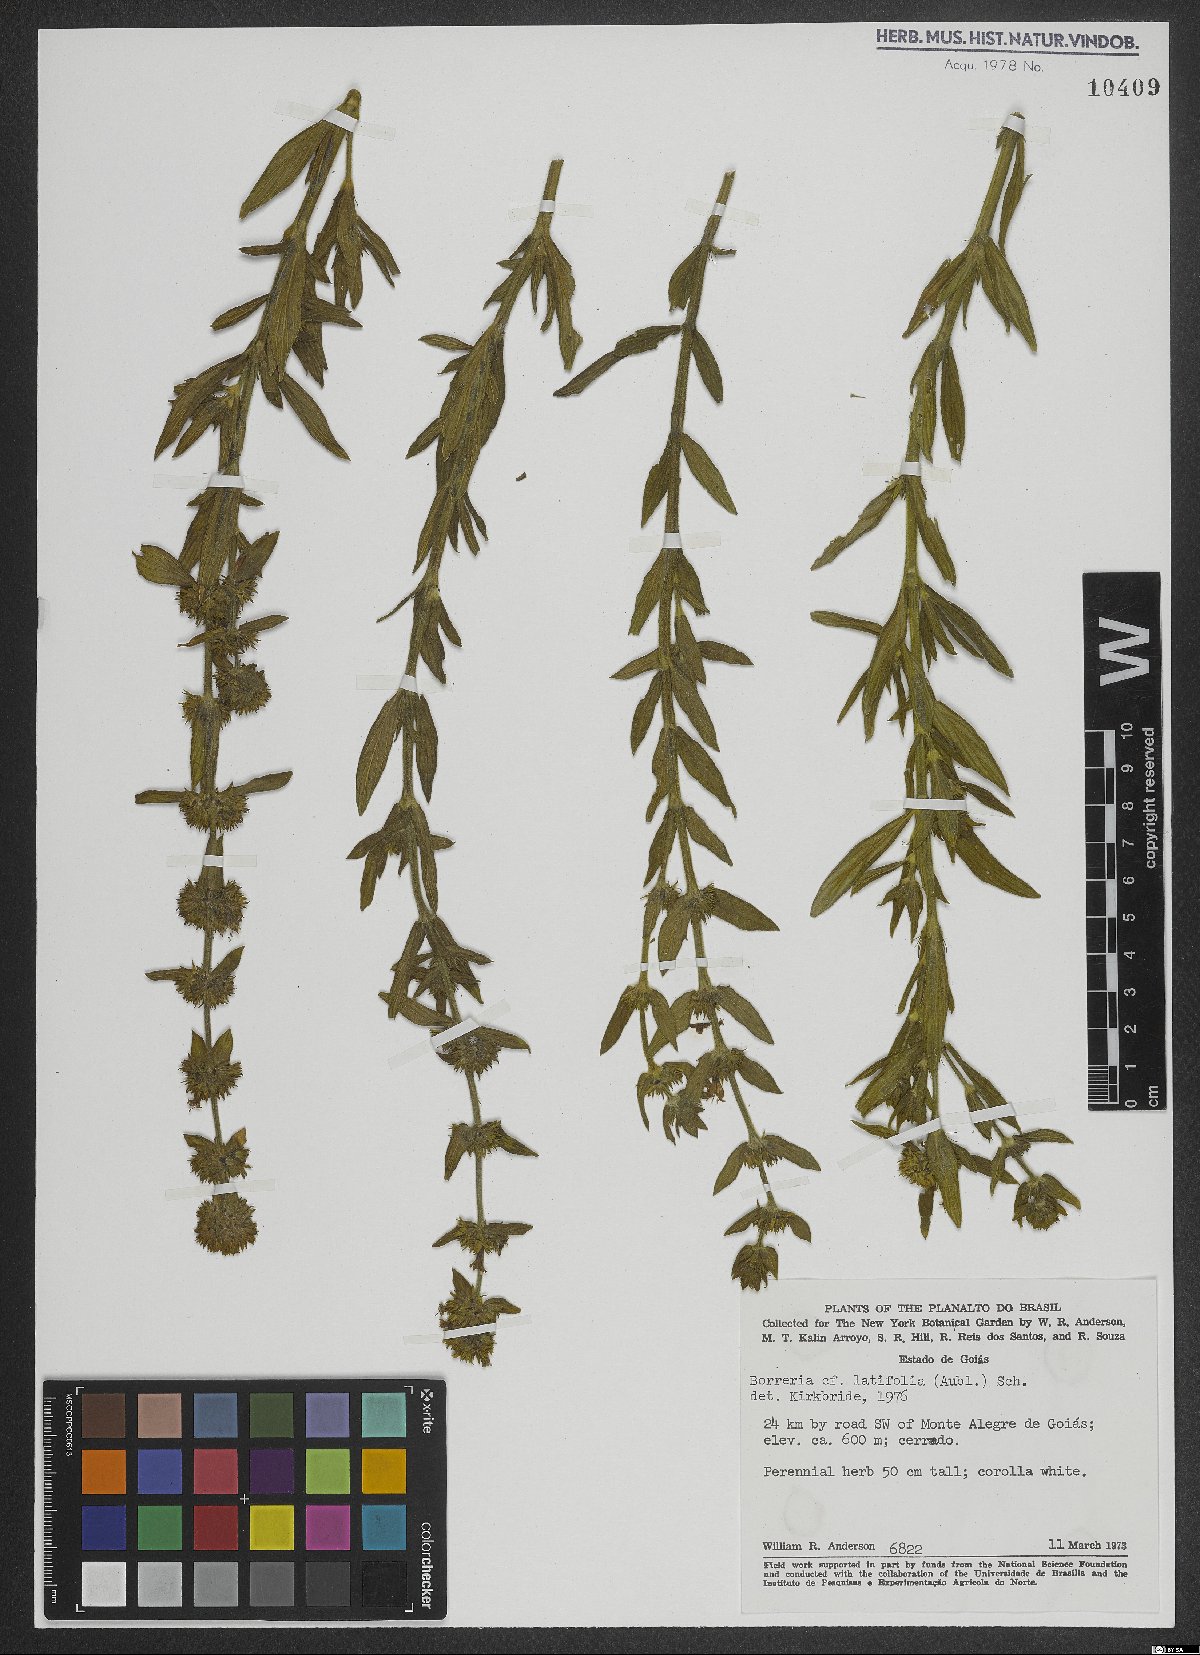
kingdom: Plantae
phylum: Tracheophyta
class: Magnoliopsida
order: Gentianales
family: Rubiaceae
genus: Spermacoce
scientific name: Spermacoce latifolia
